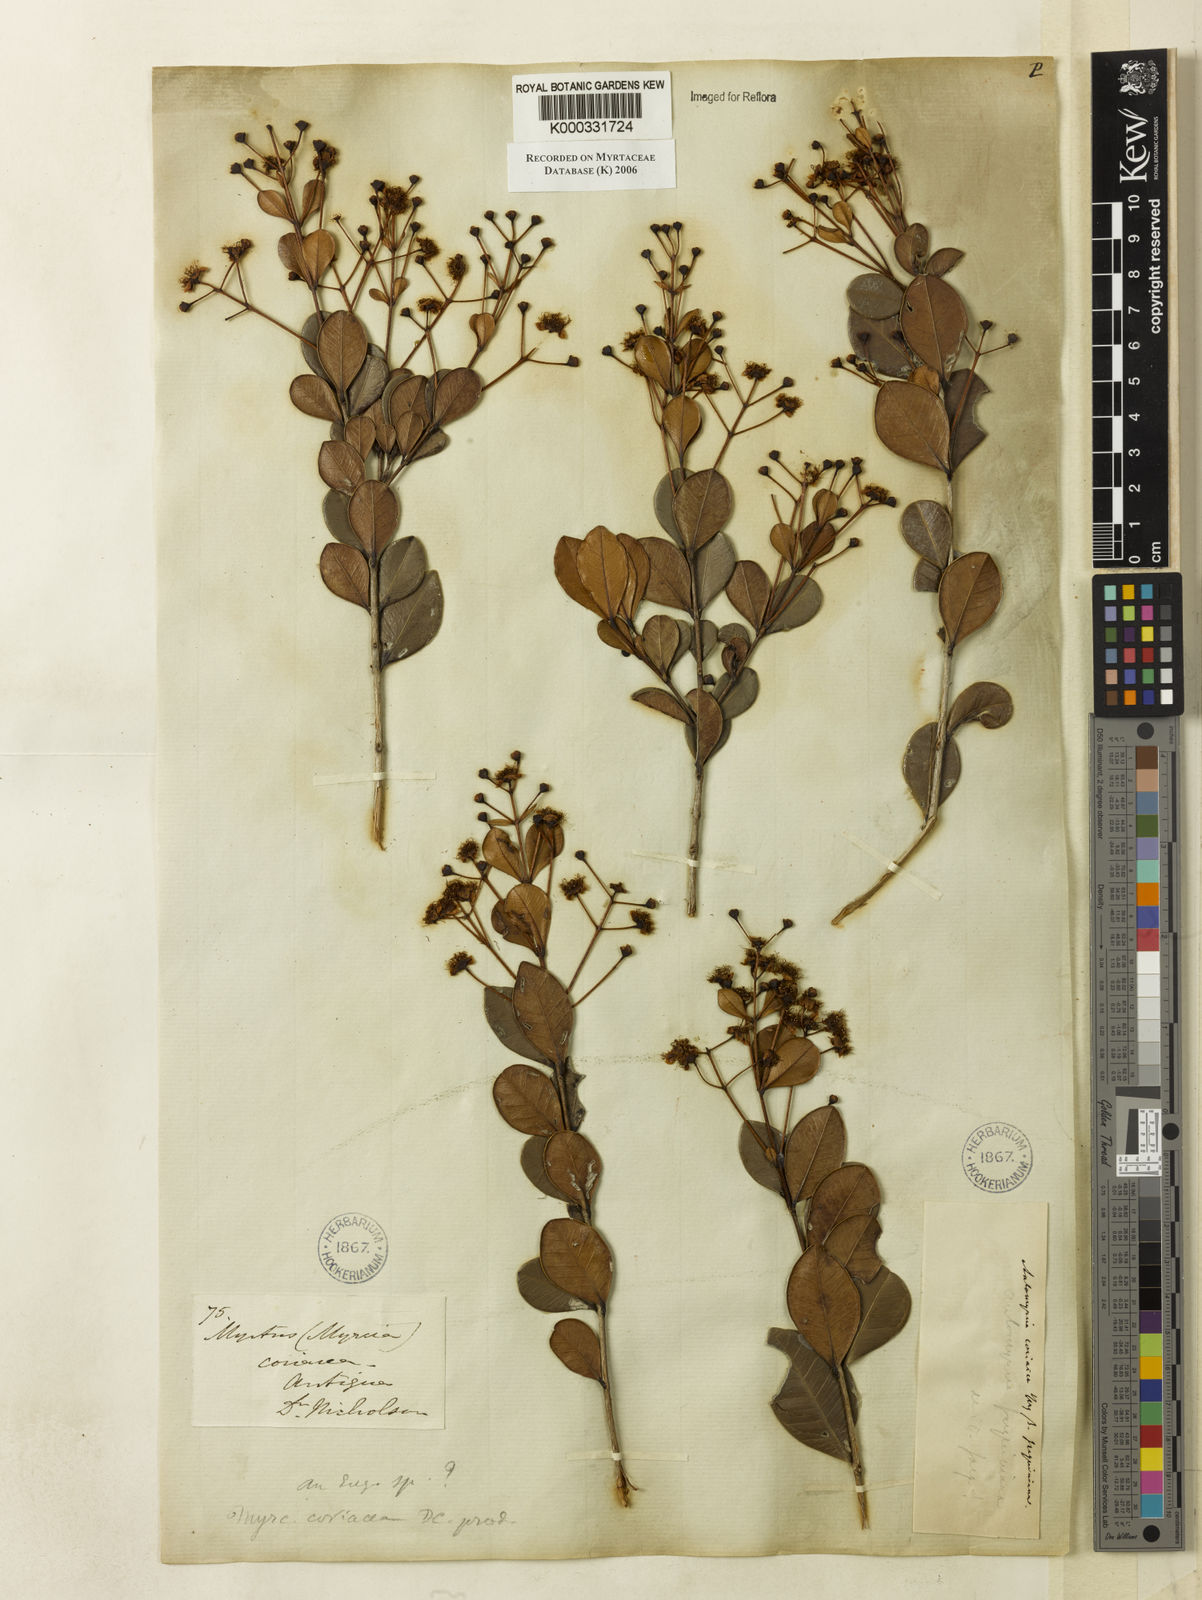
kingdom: Plantae
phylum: Tracheophyta
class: Magnoliopsida
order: Myrtales
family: Myrtaceae
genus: Myrcia
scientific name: Myrcia guianensis
